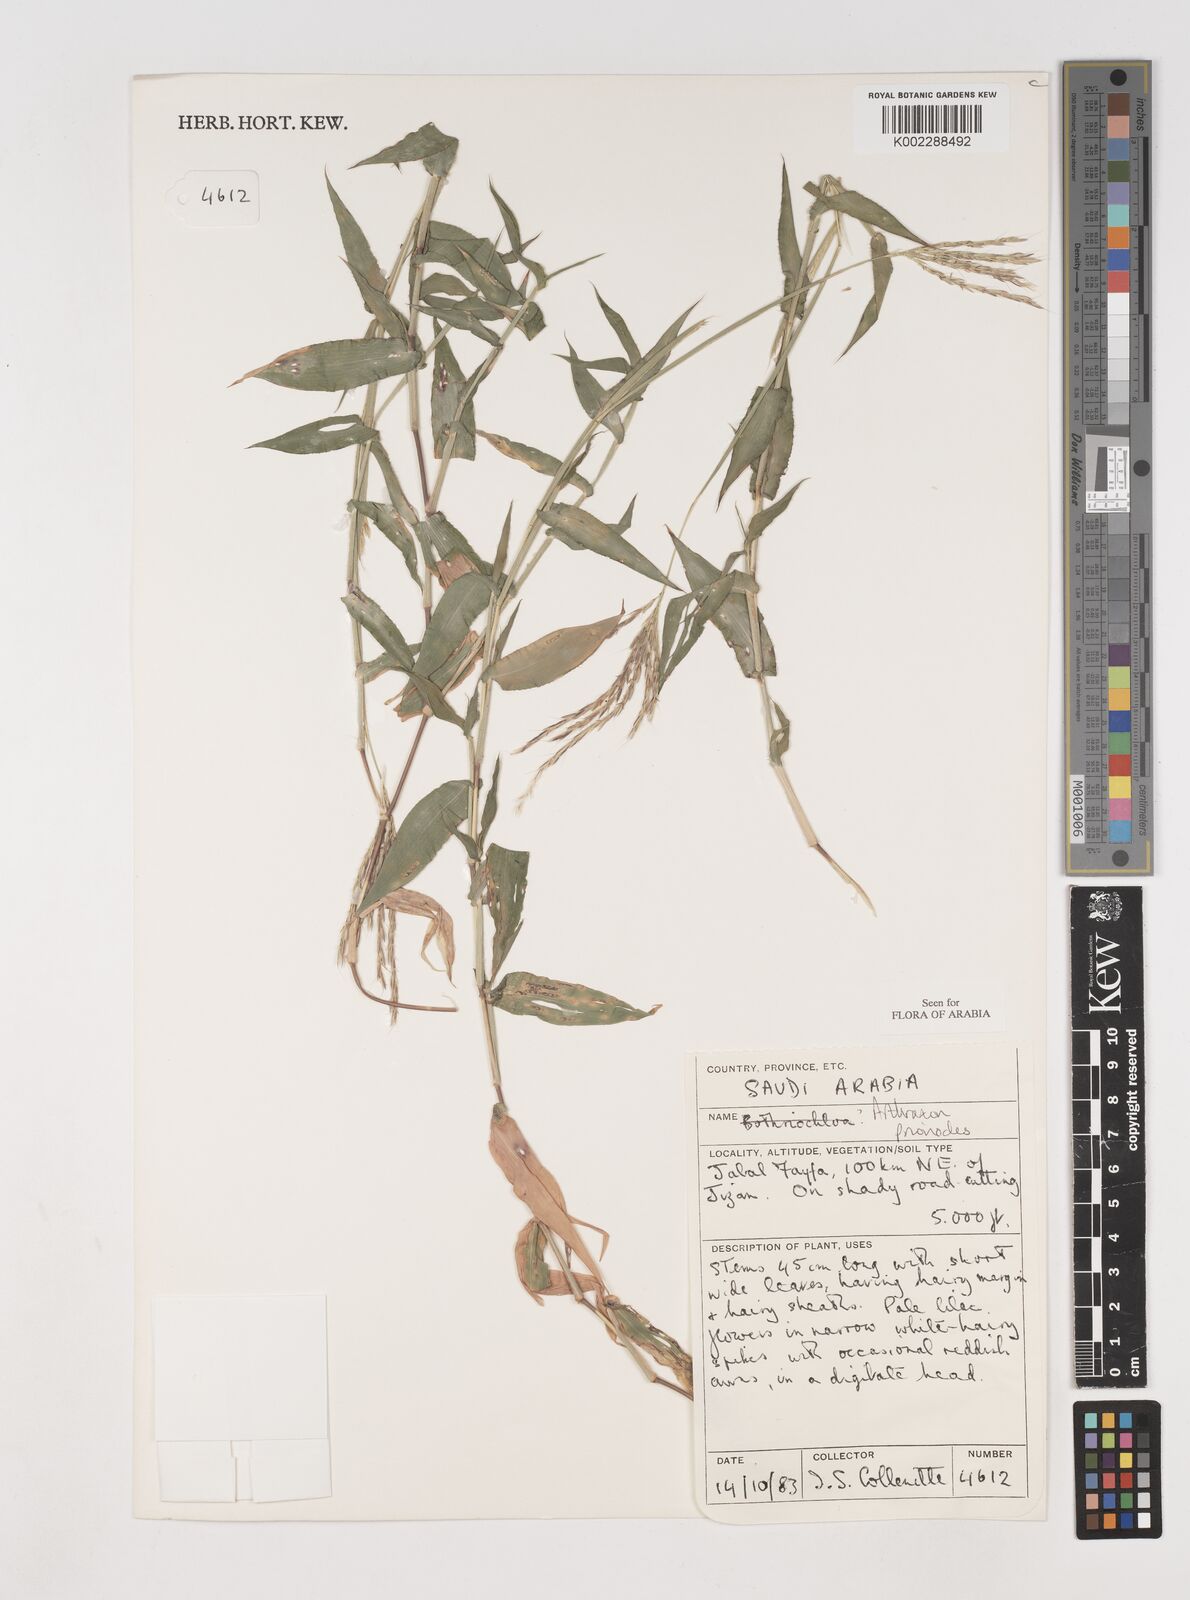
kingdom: Plantae
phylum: Tracheophyta
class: Liliopsida
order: Poales
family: Poaceae
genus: Arthraxon
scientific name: Arthraxon prionodes
